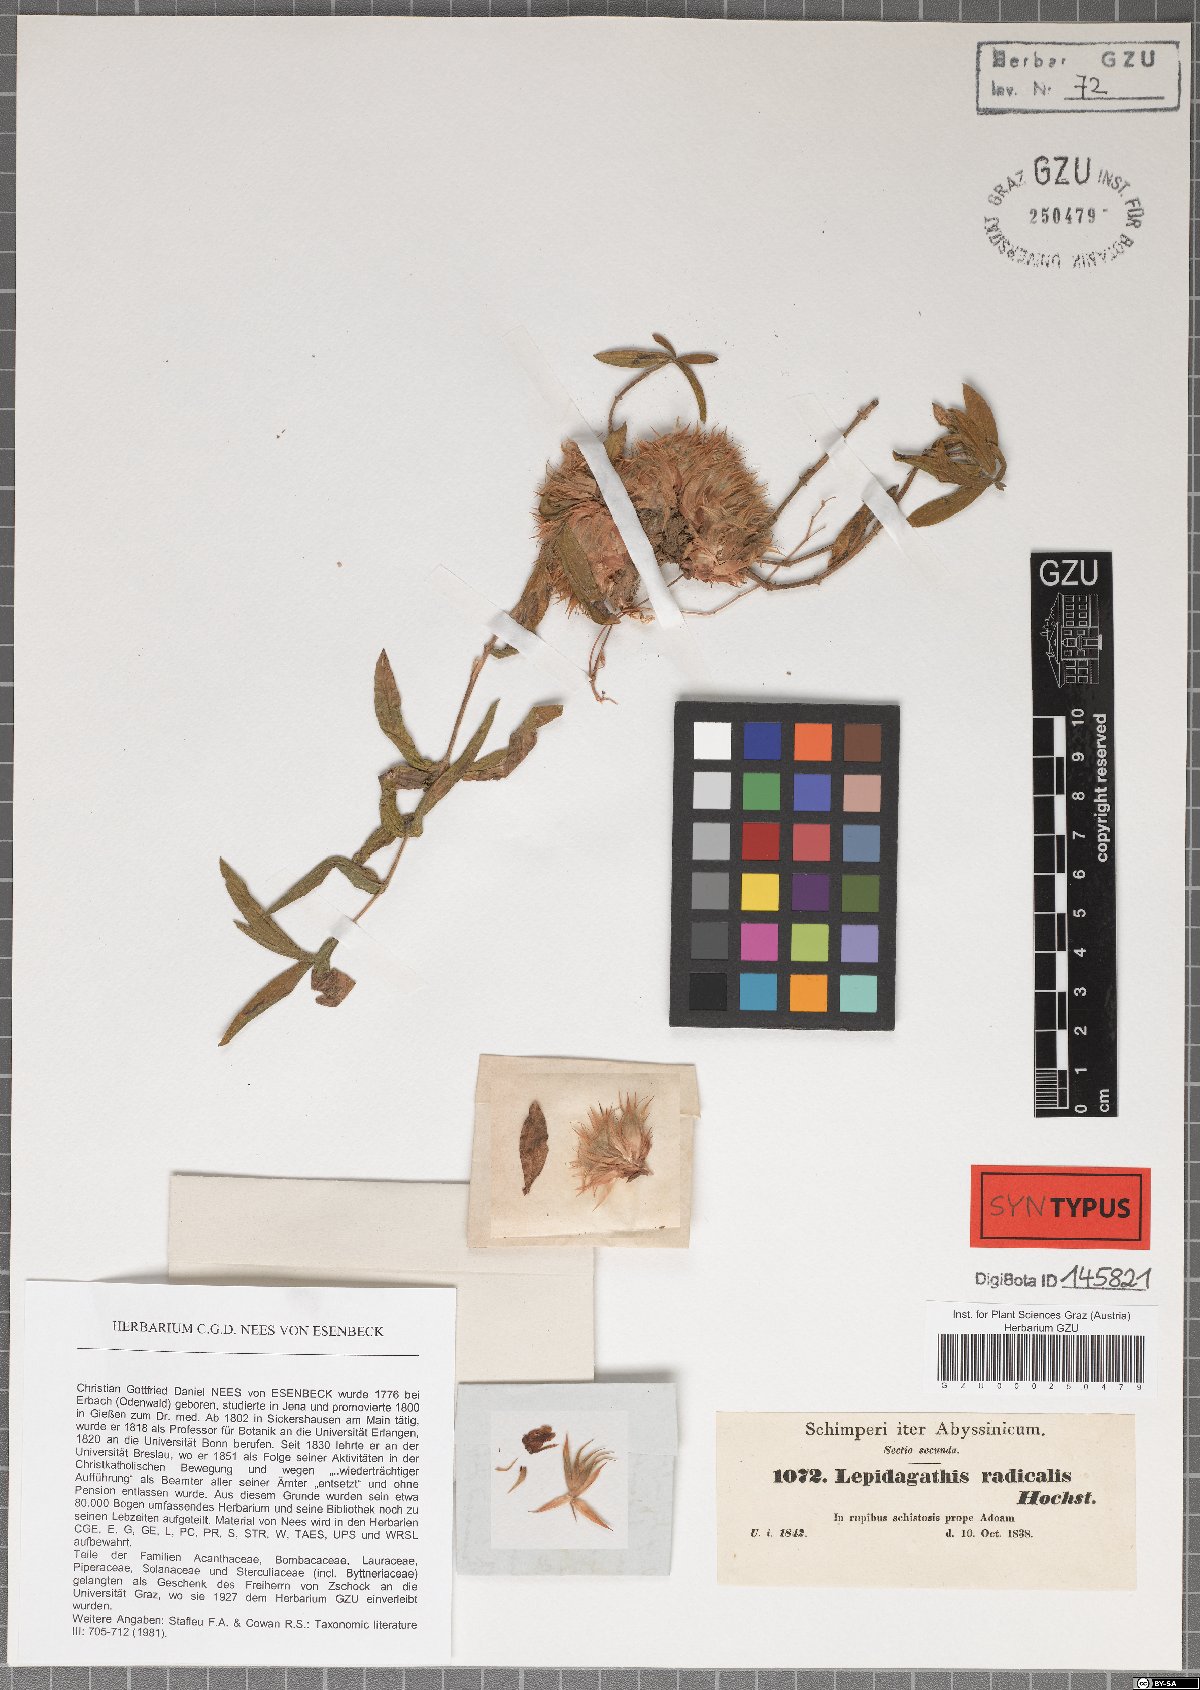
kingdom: Plantae
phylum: Tracheophyta
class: Magnoliopsida
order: Lamiales
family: Acanthaceae
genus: Lepidagathis
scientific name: Lepidagathis collina
